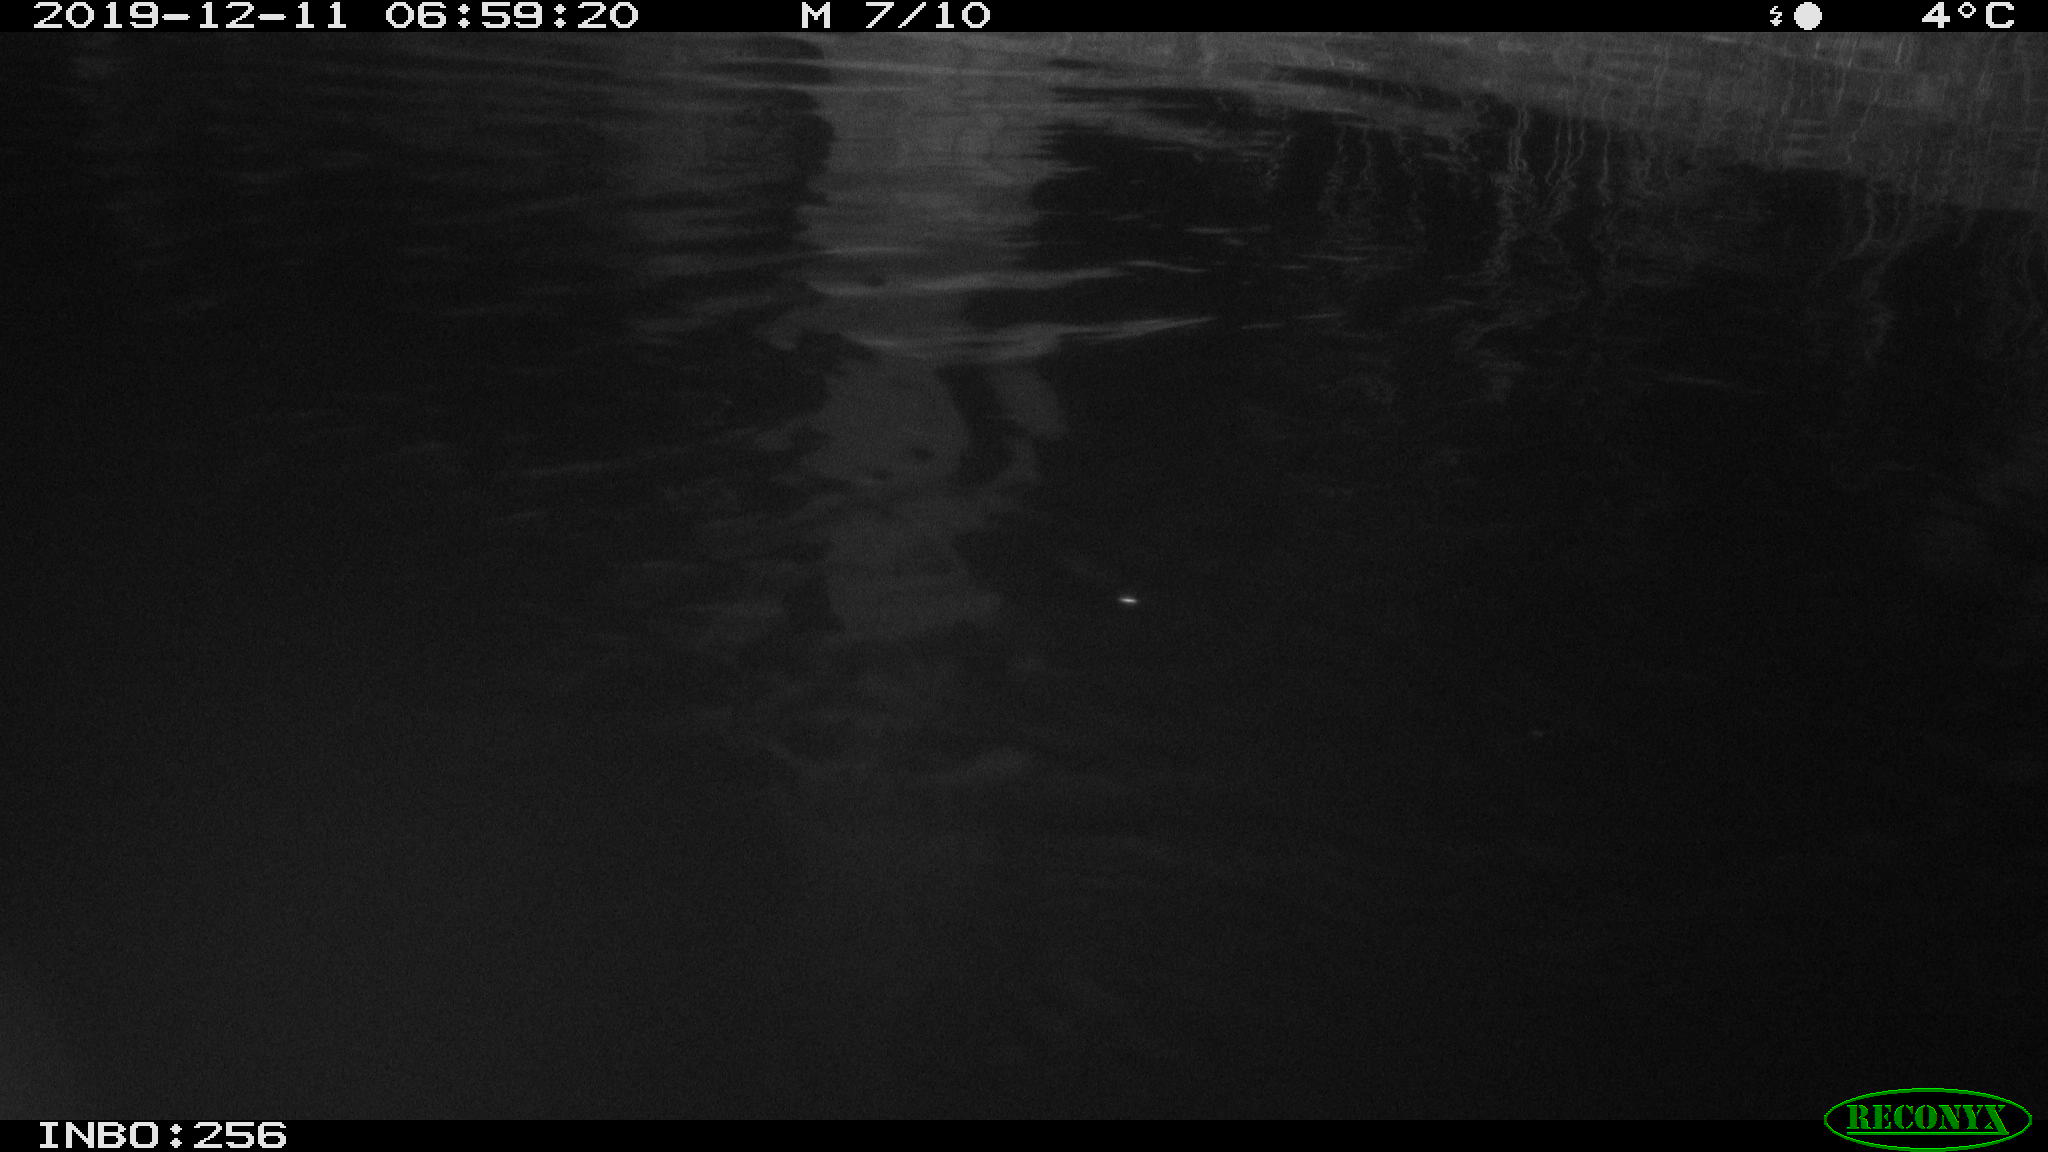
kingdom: Animalia
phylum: Chordata
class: Mammalia
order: Rodentia
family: Cricetidae
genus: Arvicola
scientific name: Arvicola amphibius
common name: European water vole
